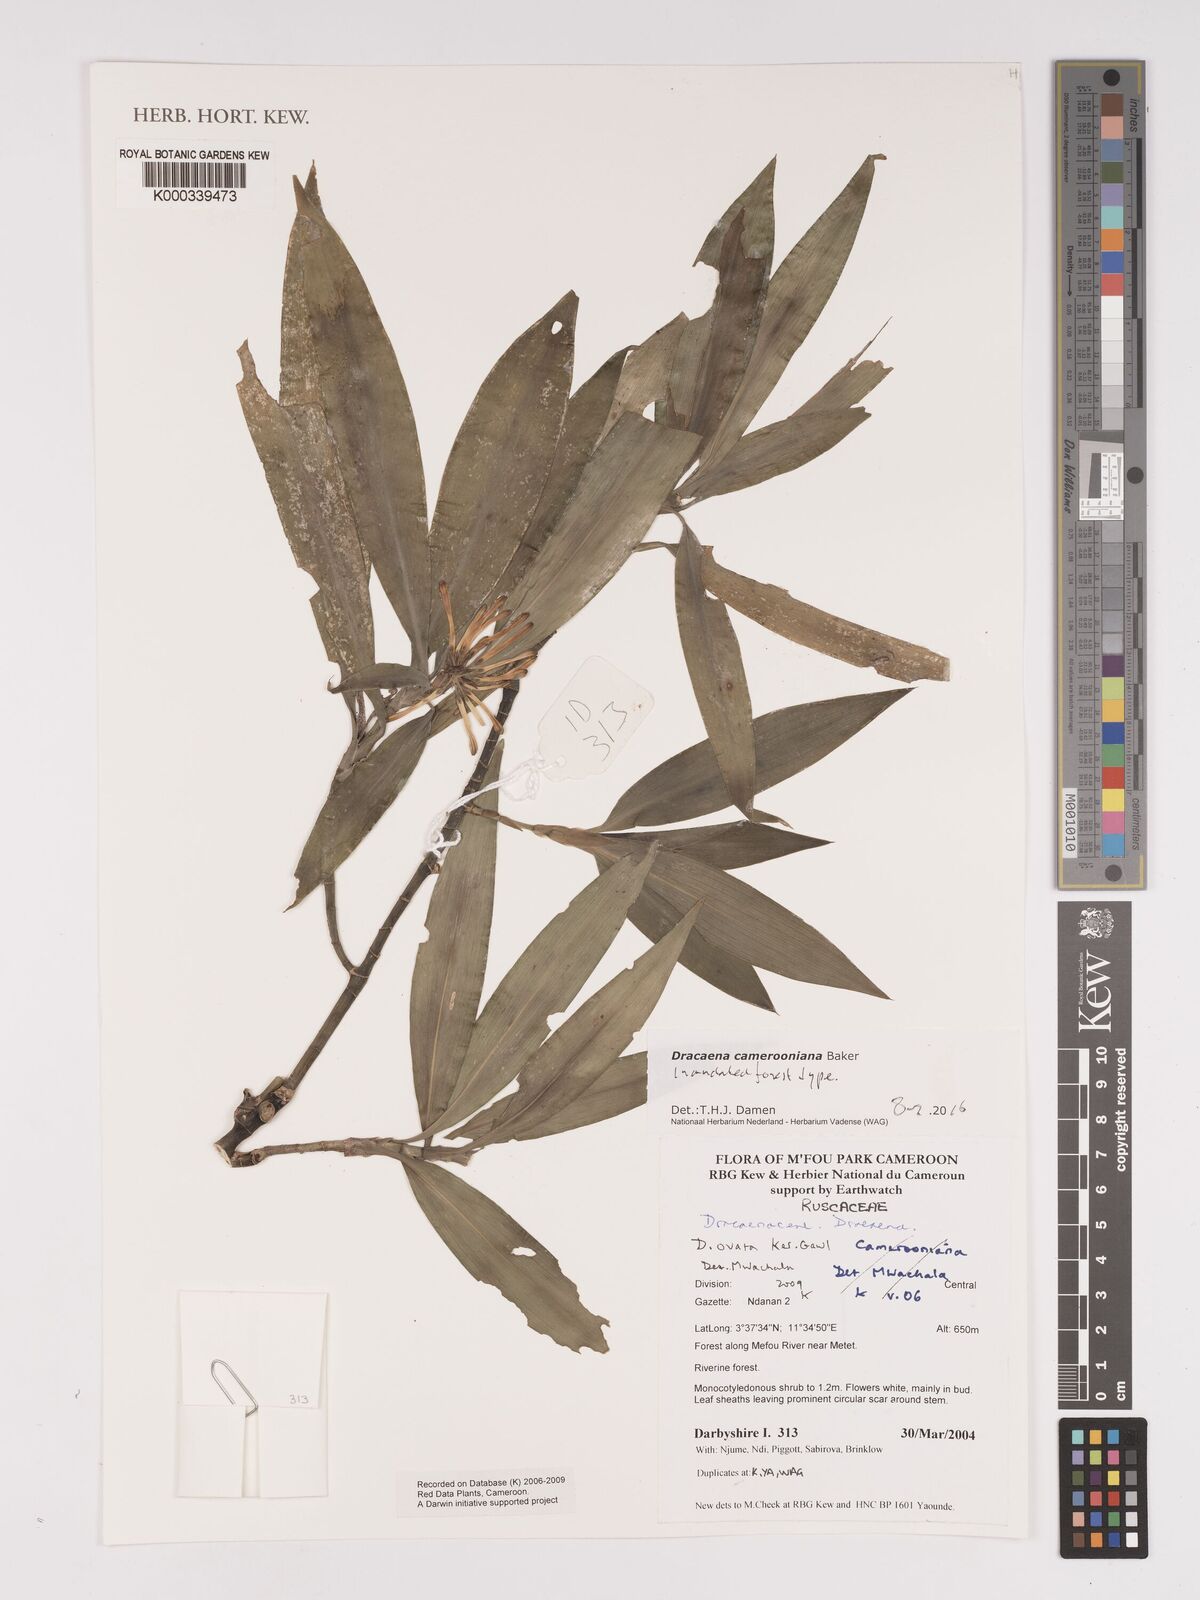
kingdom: Plantae
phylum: Tracheophyta
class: Liliopsida
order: Asparagales
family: Asparagaceae
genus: Dracaena
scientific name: Dracaena camerooniana
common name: Dragon tree
